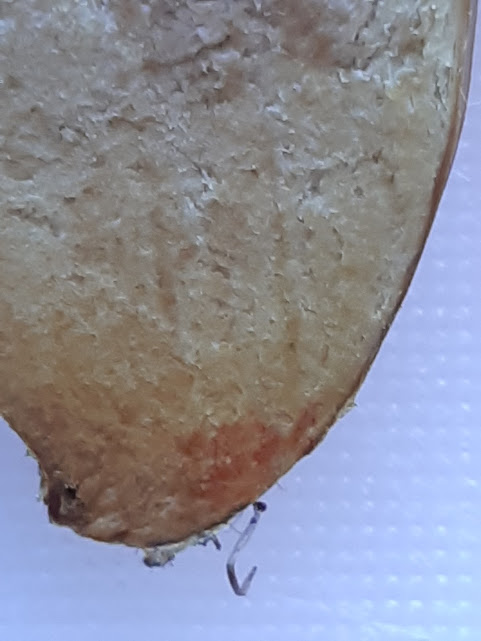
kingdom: Fungi
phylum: Basidiomycota
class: Agaricomycetes
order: Boletales
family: Boletaceae
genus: Hortiboletus
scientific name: Hortiboletus engelii
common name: fersken-rørhat
